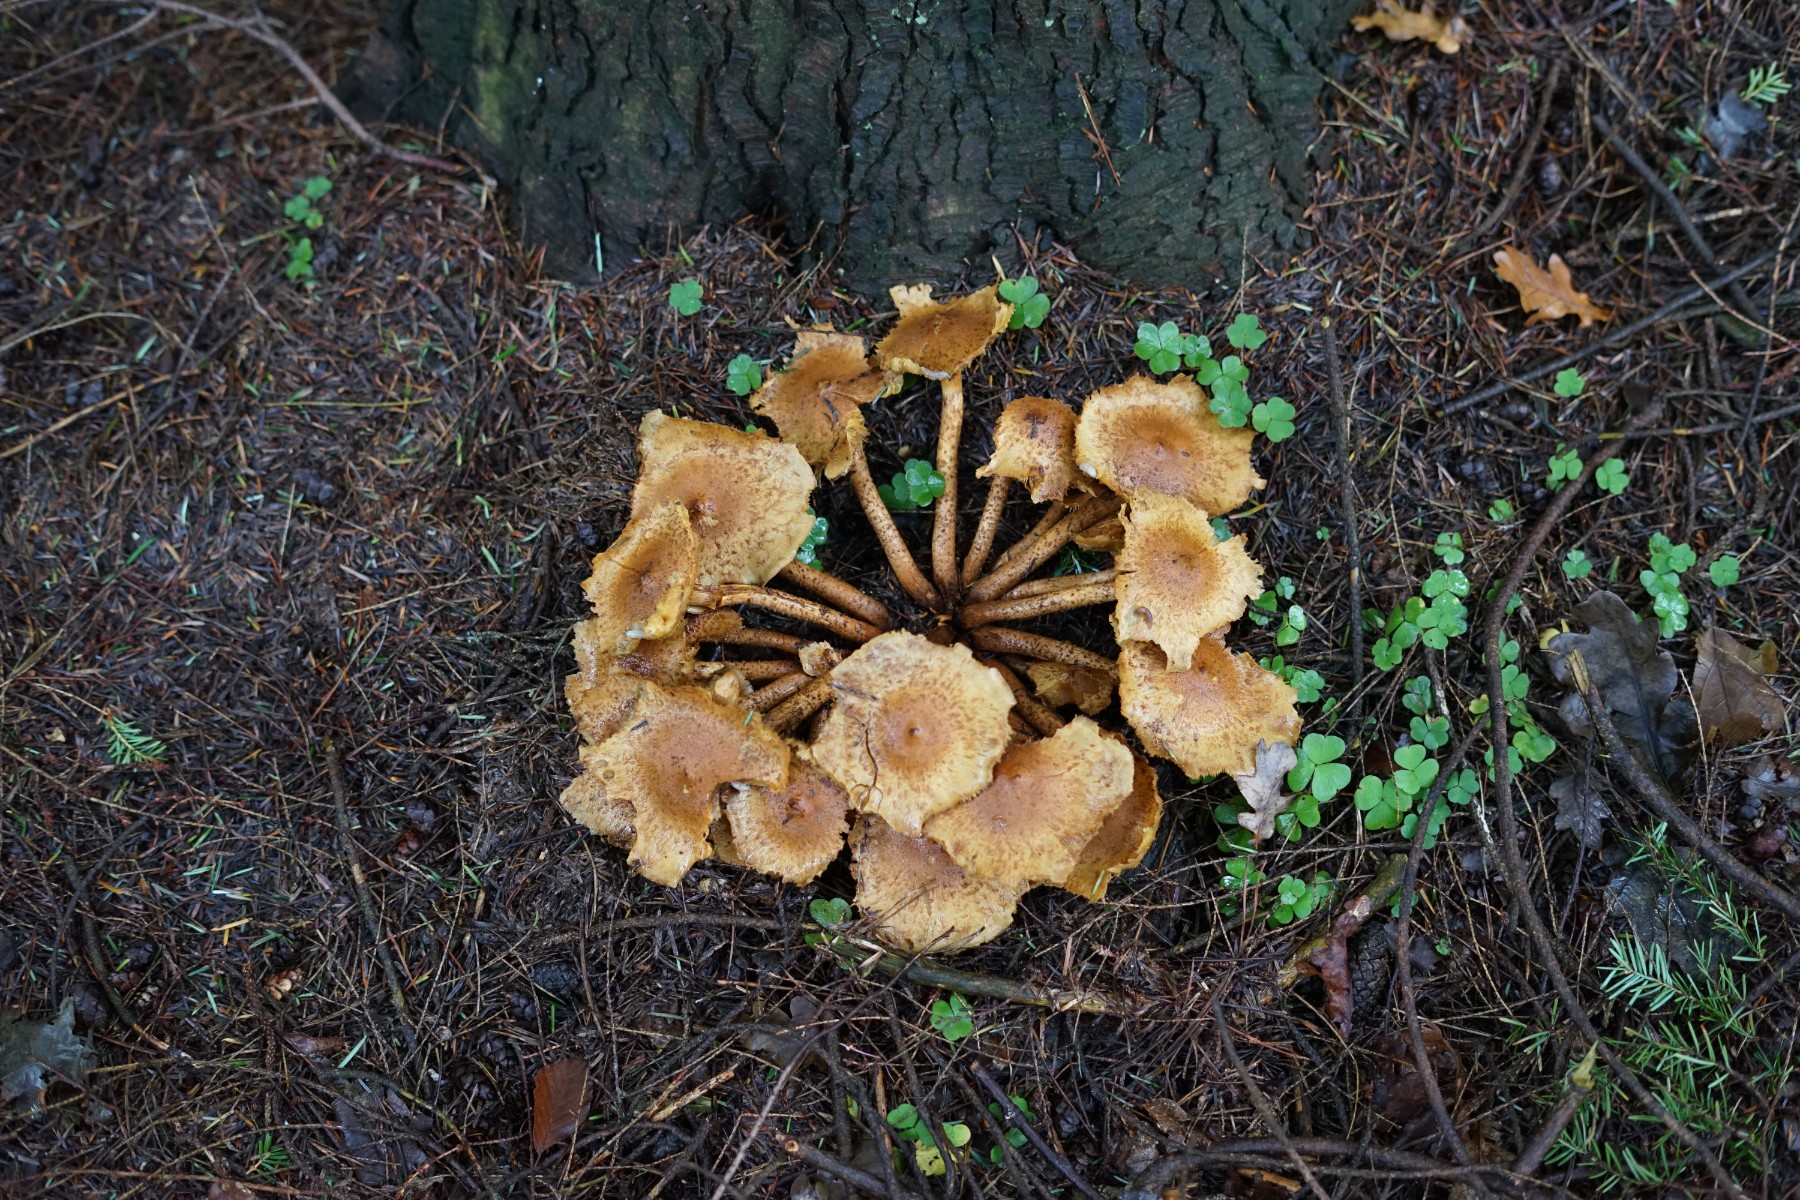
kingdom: Fungi
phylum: Basidiomycota
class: Agaricomycetes
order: Agaricales
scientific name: Agaricales
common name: champignonordenen
